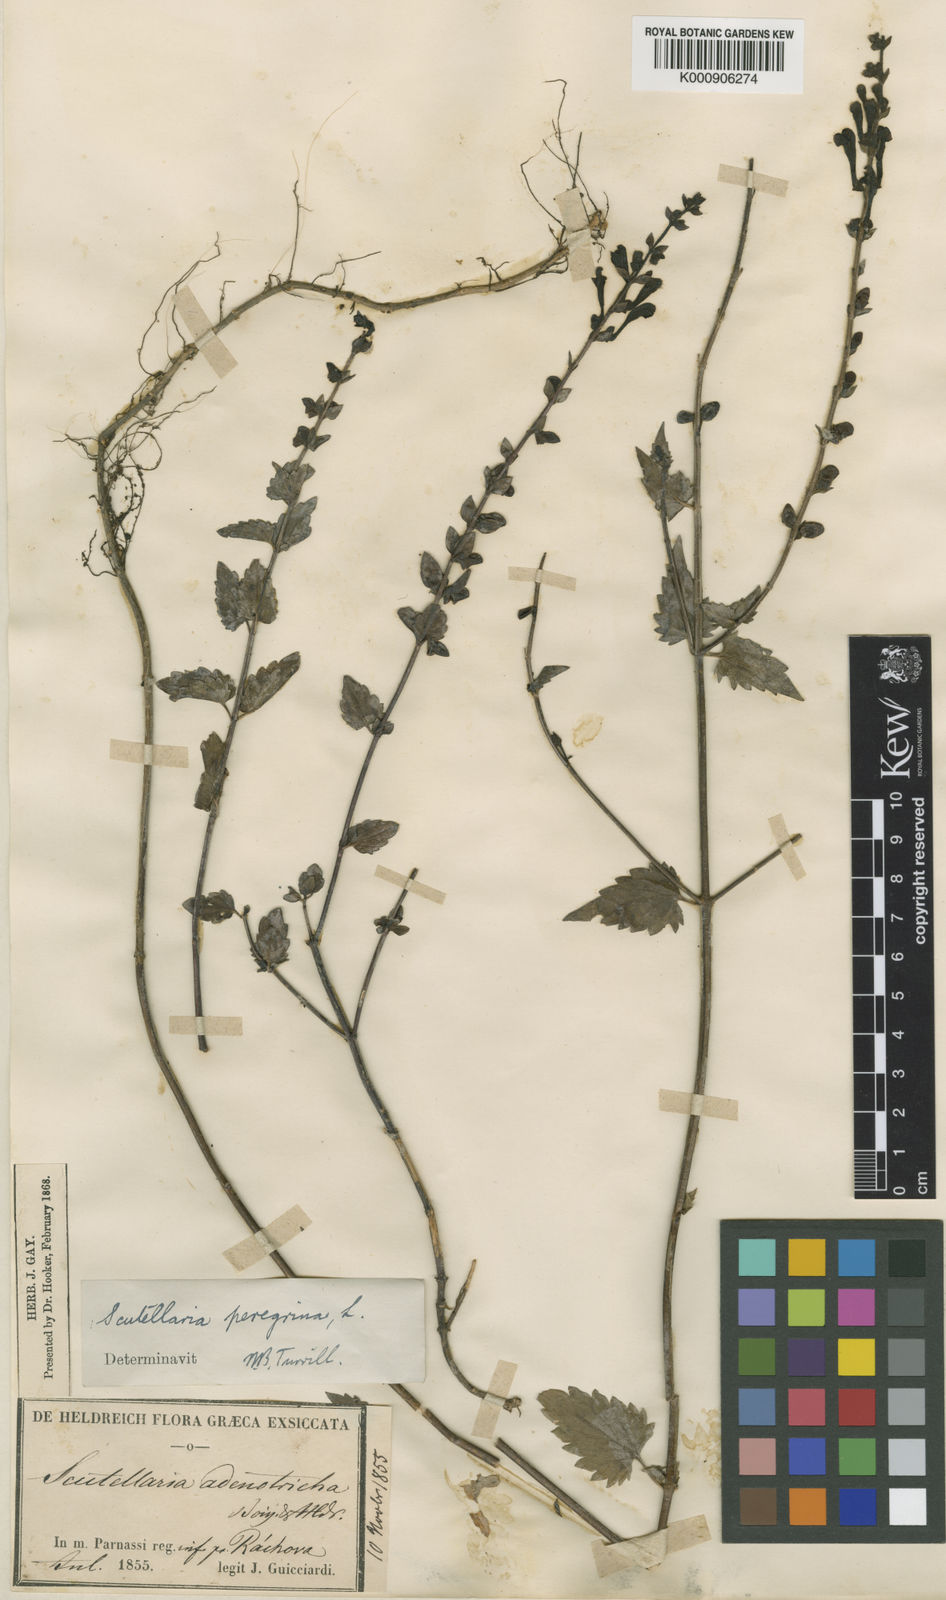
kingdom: Plantae
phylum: Tracheophyta
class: Magnoliopsida
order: Lamiales
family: Lamiaceae
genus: Scutellaria
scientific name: Scutellaria rubicunda
